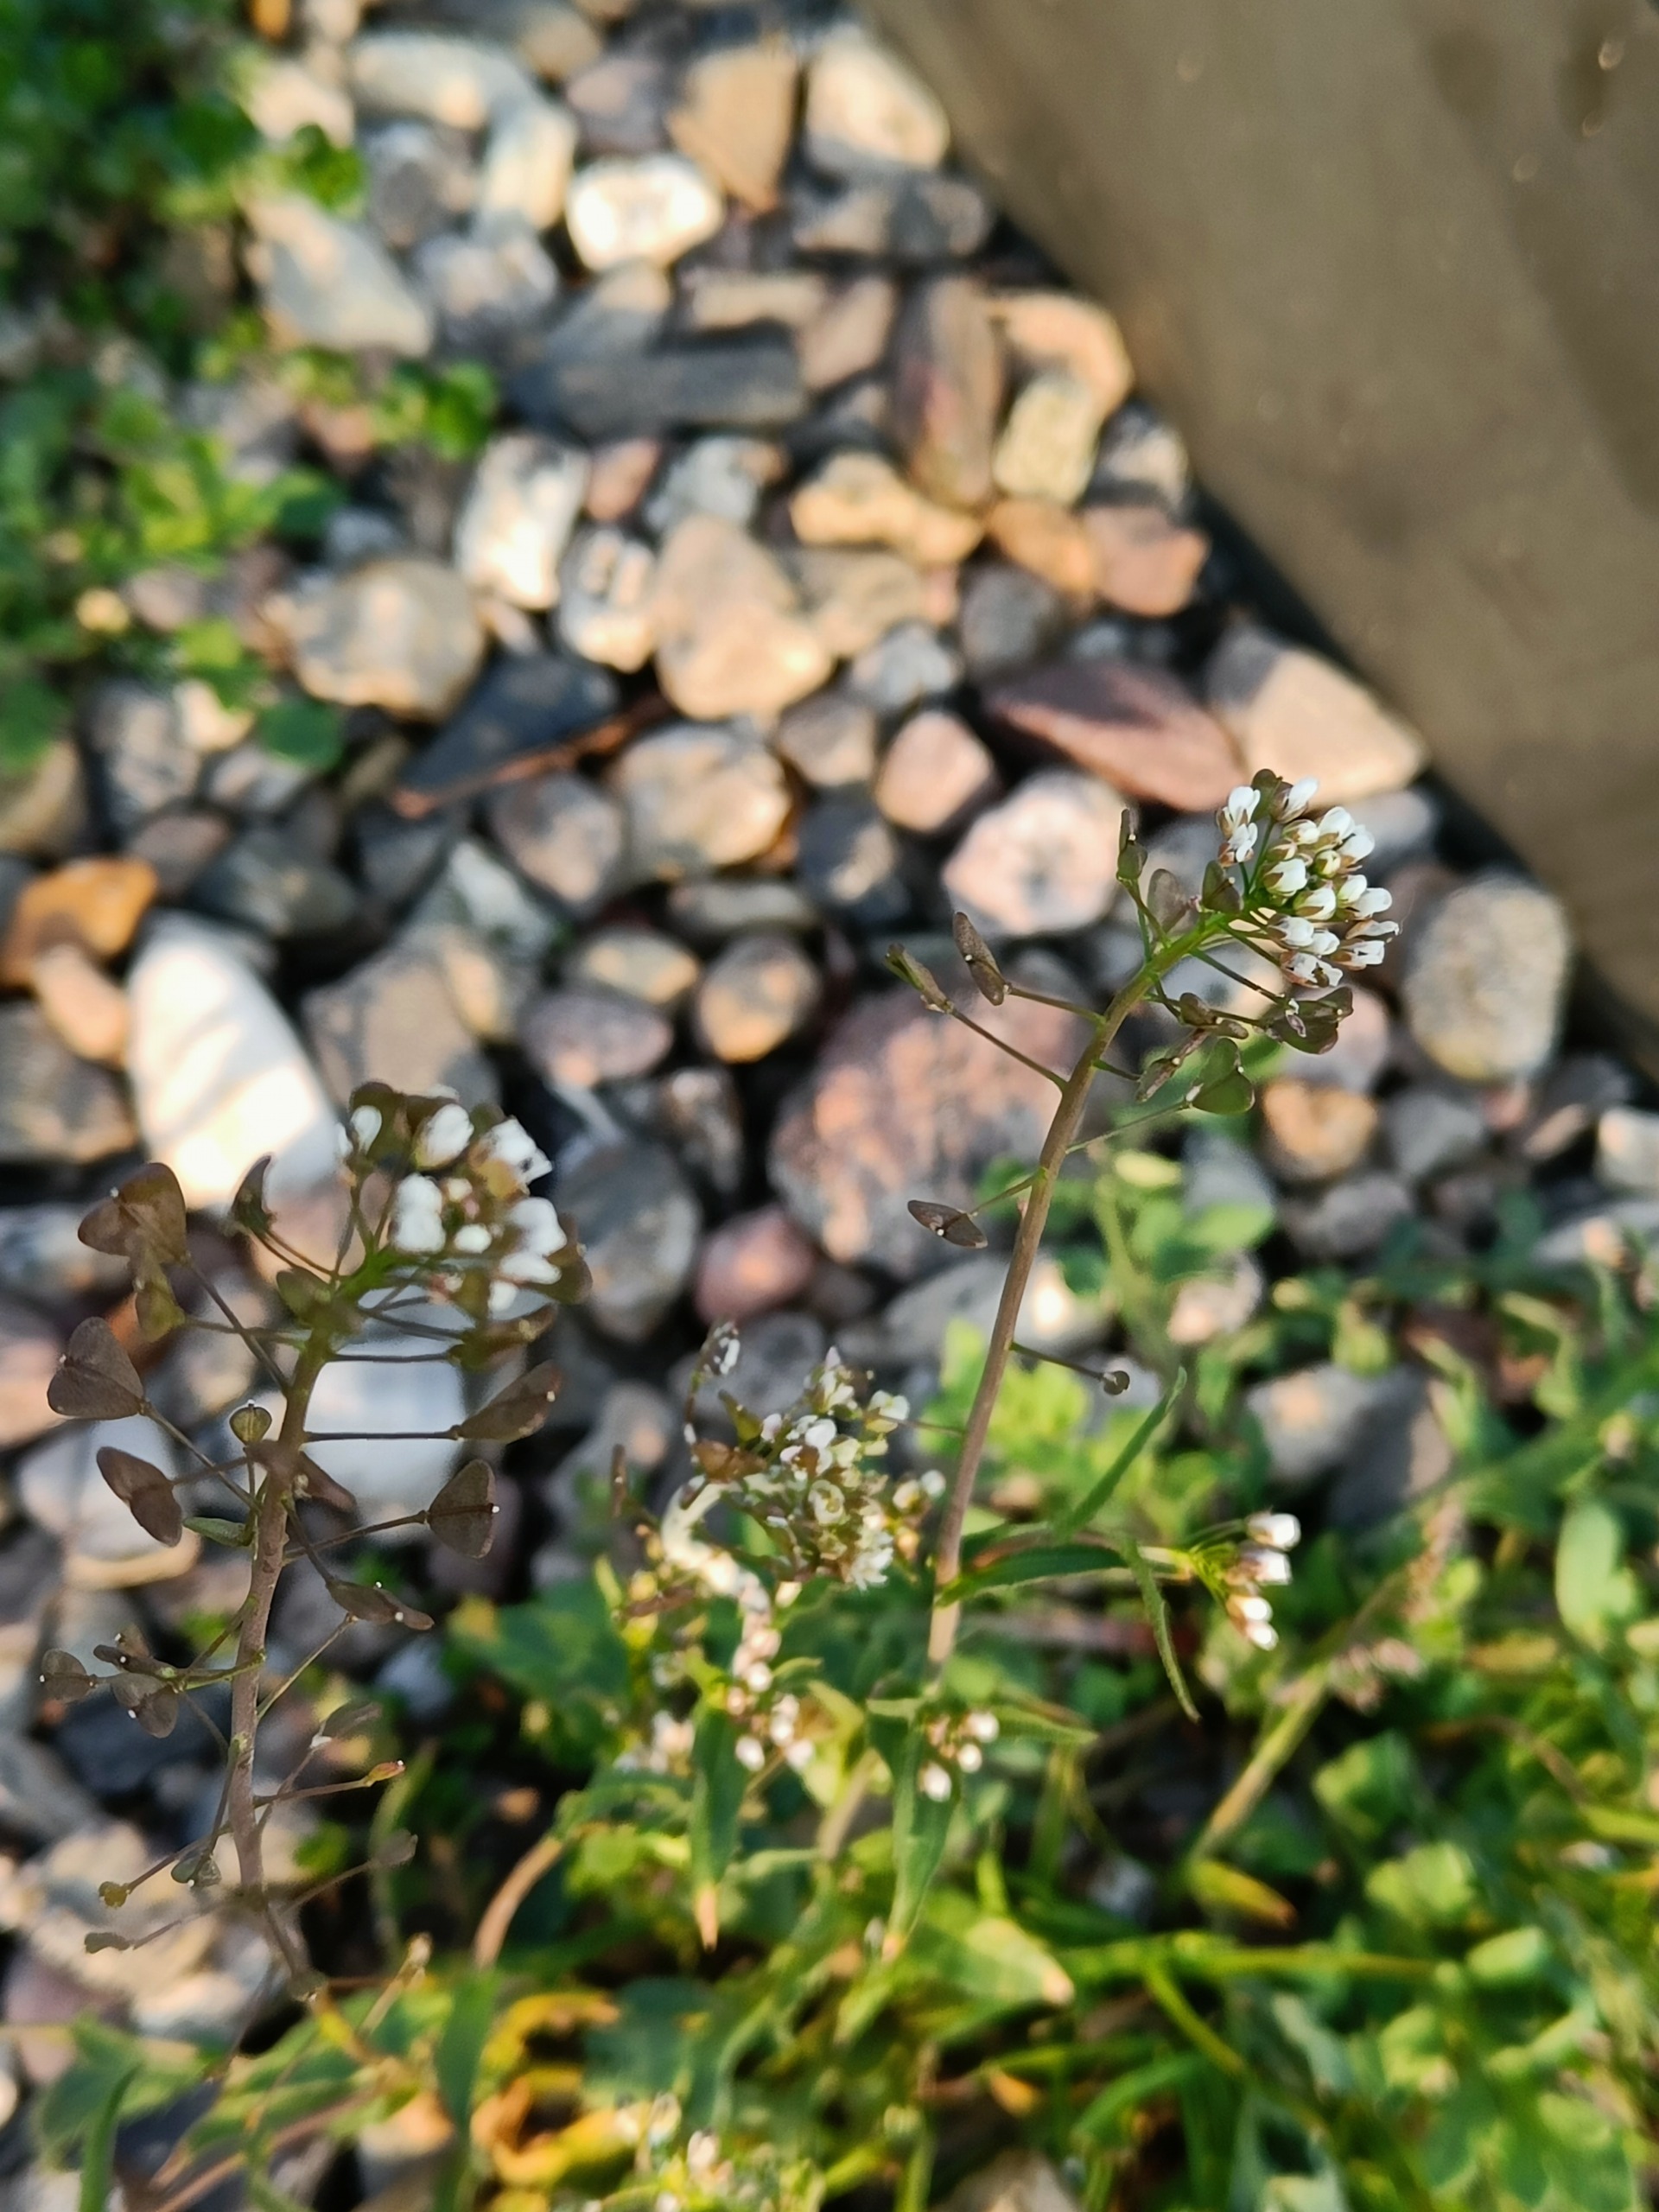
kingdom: Plantae
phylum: Tracheophyta
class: Magnoliopsida
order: Brassicales
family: Brassicaceae
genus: Capsella
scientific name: Capsella bursa-pastoris
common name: Hyrdetaske
